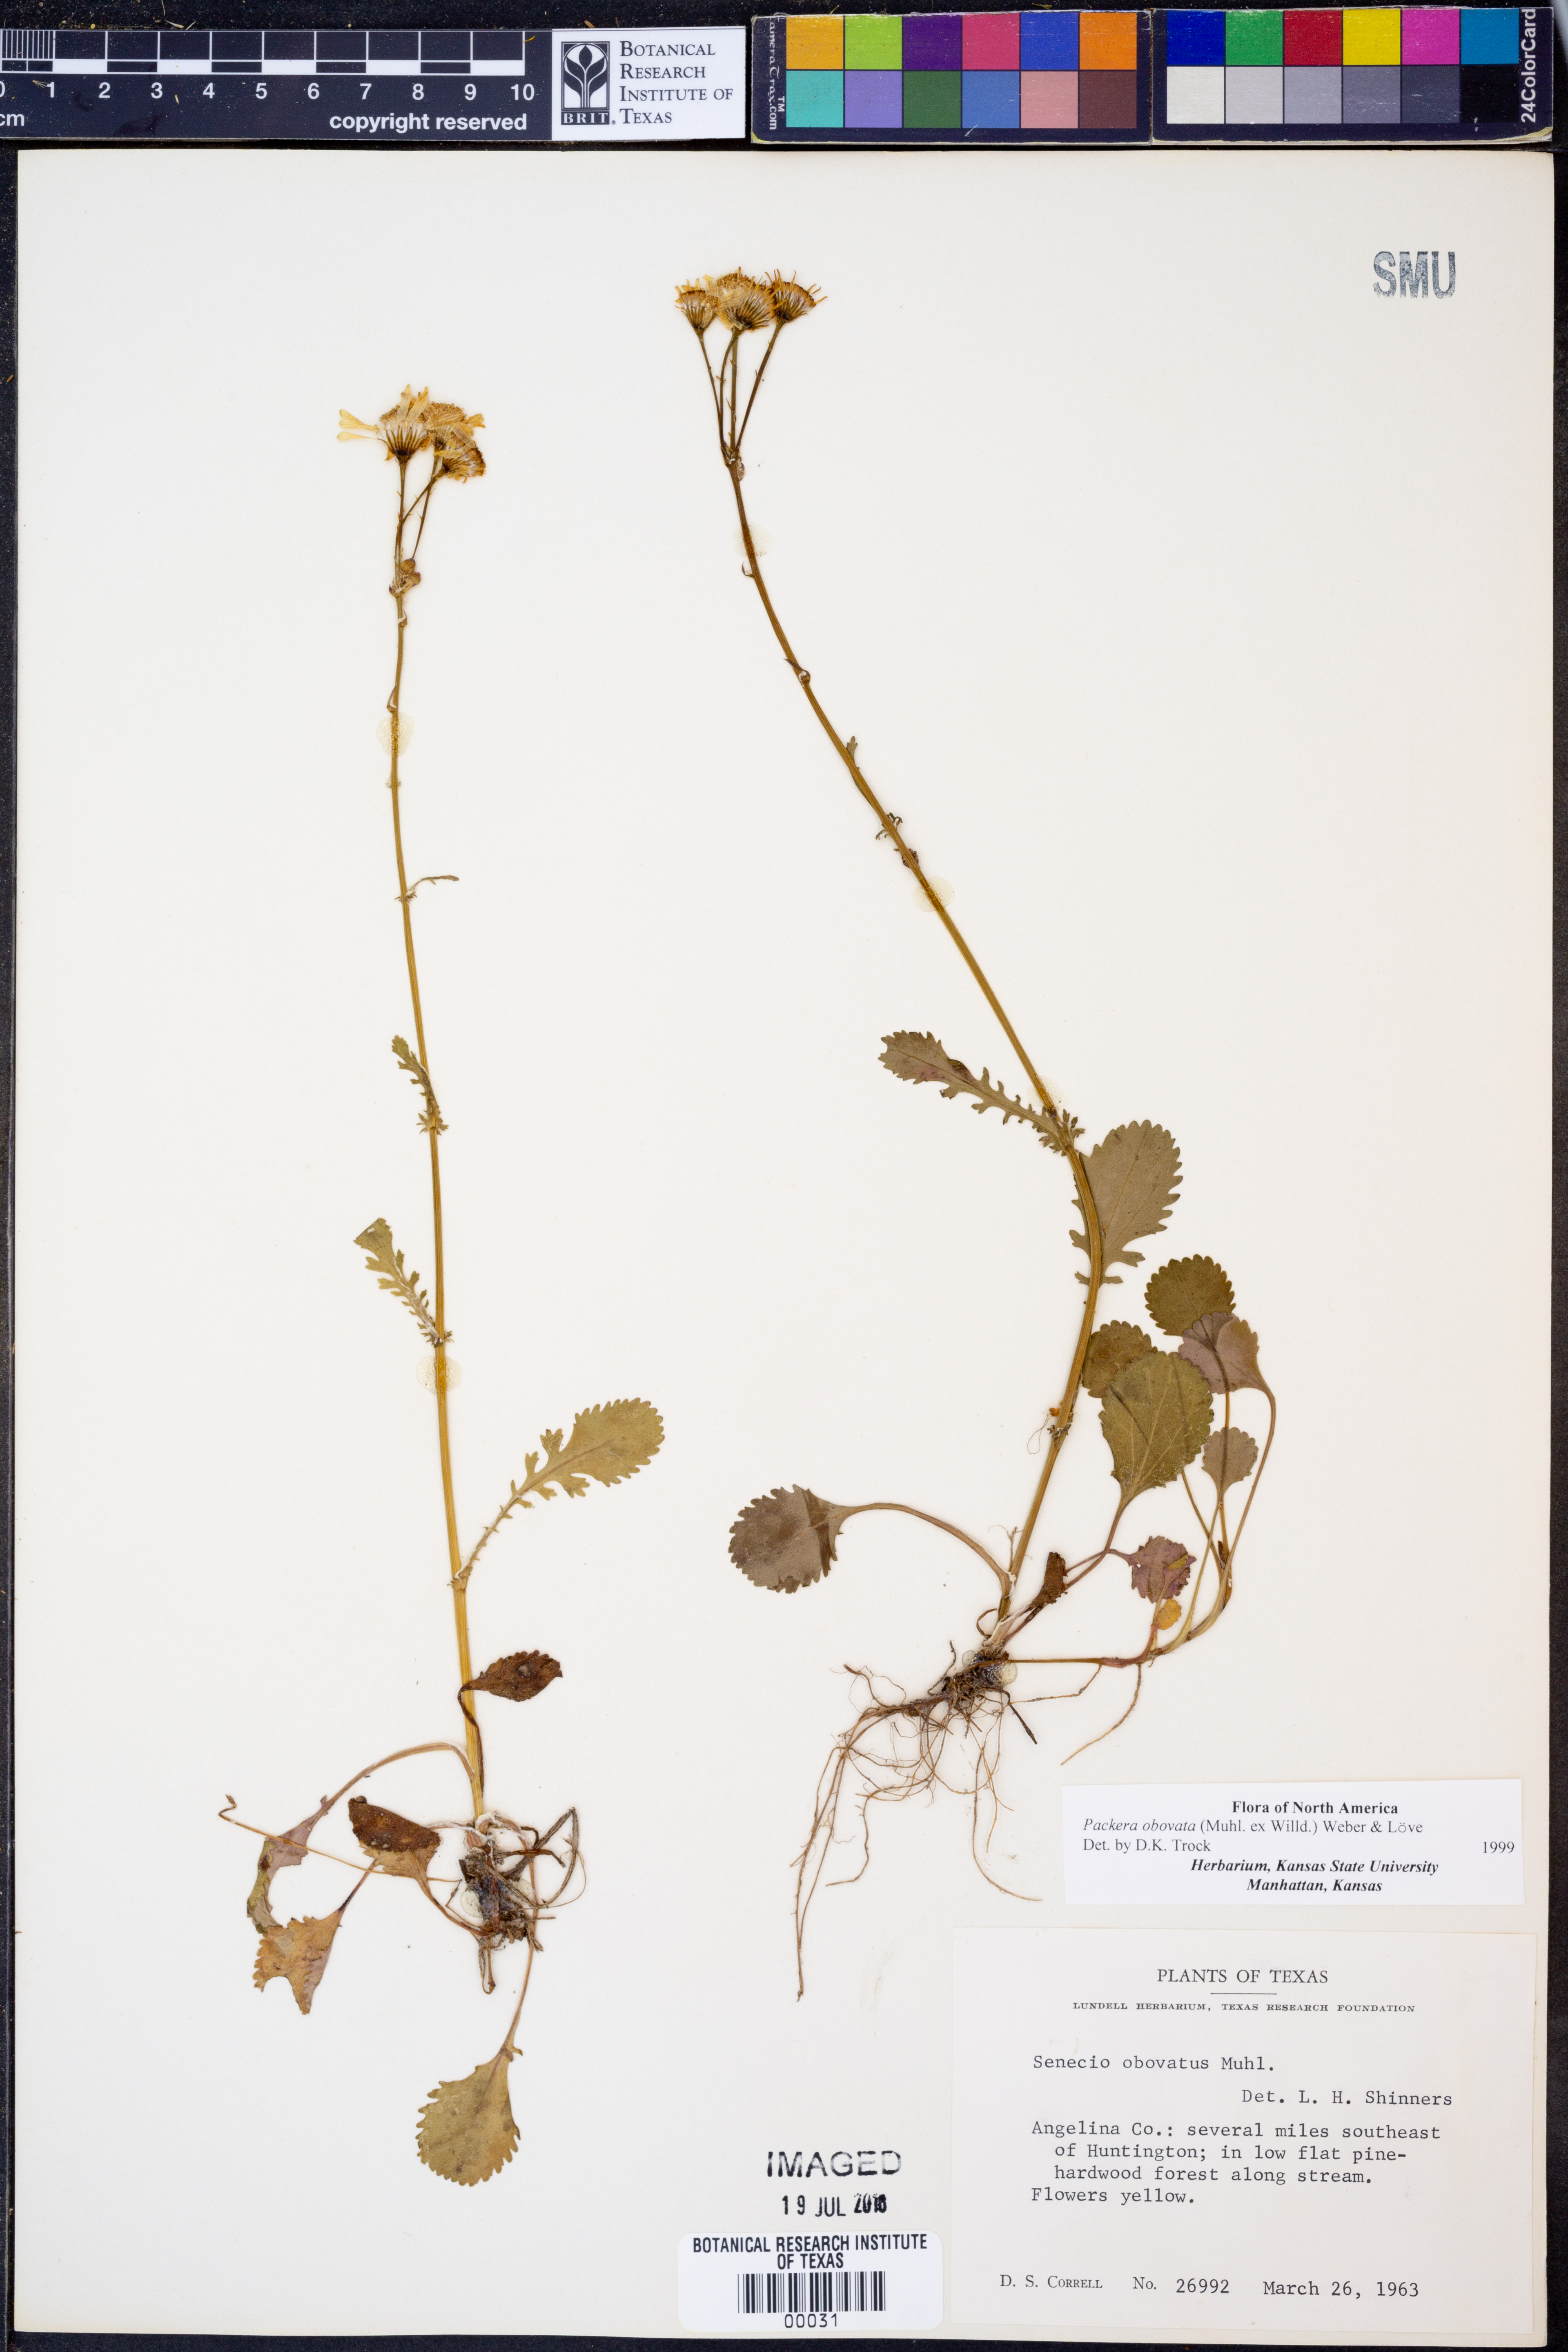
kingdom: Plantae
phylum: Tracheophyta
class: Magnoliopsida
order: Asterales
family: Asteraceae
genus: Packera
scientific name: Packera obovata
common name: Round-leaf ragwort
